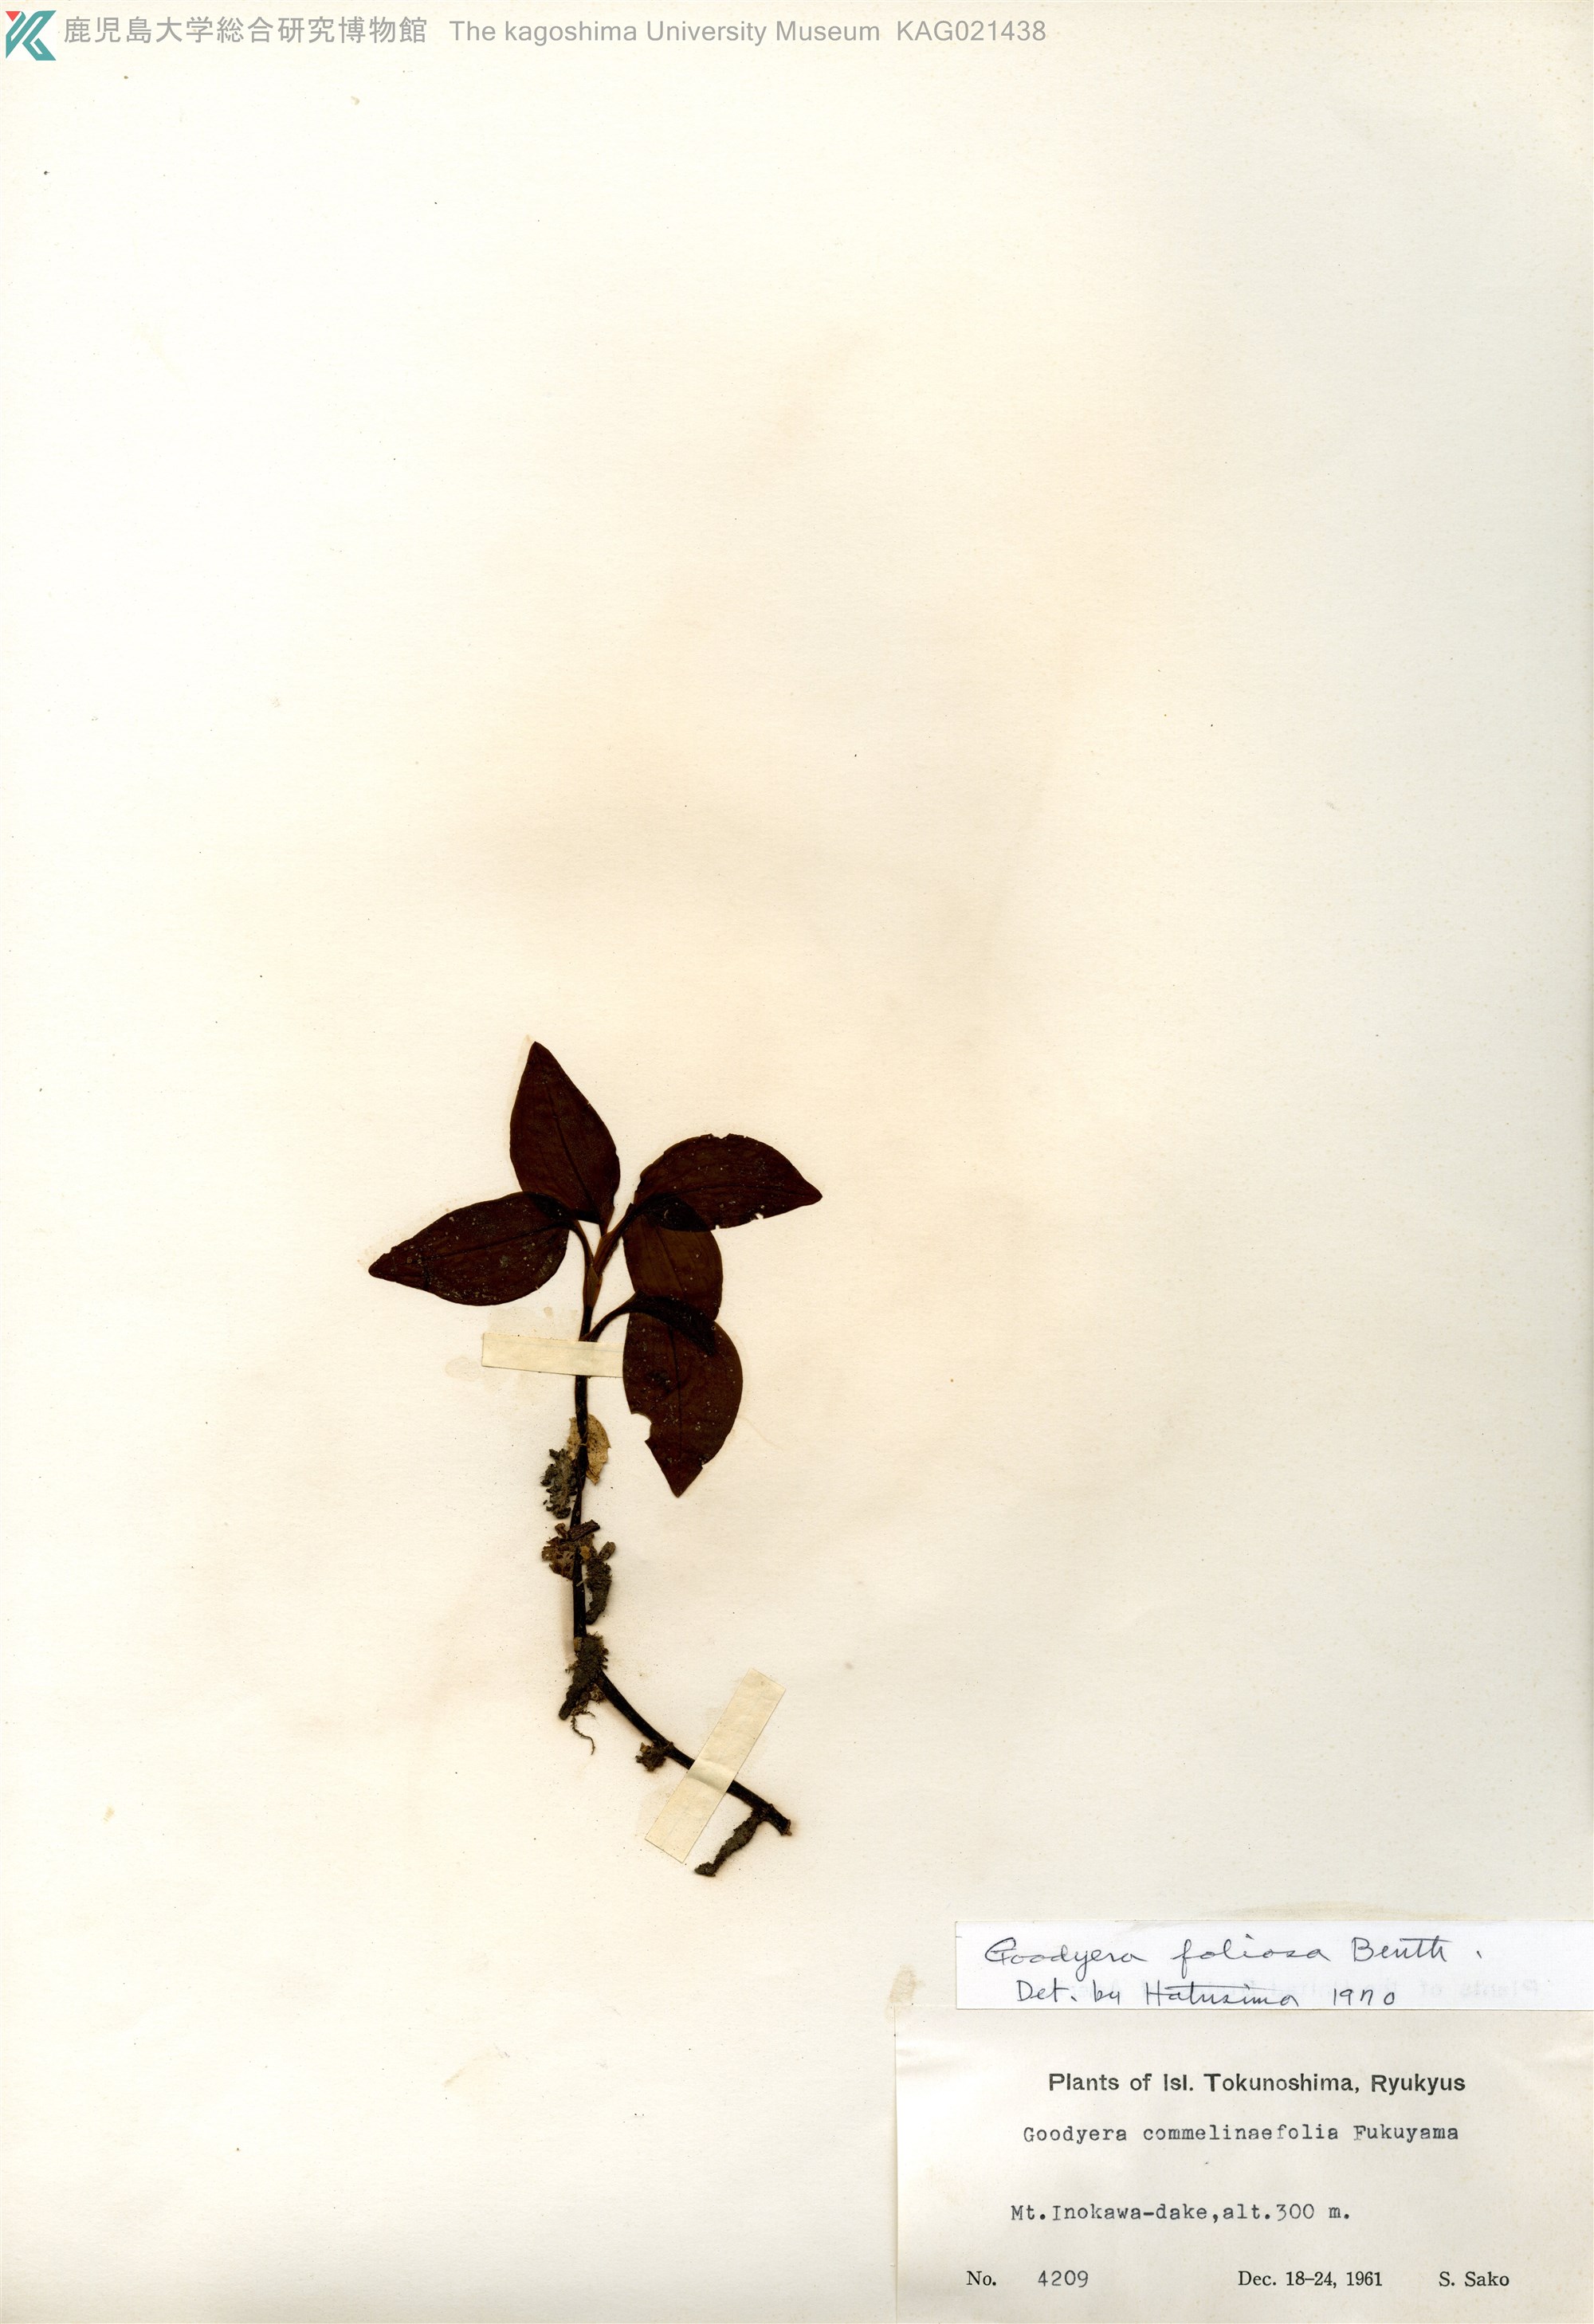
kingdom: Plantae
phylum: Tracheophyta
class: Liliopsida
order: Asparagales
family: Orchidaceae
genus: Goodyera
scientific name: Goodyera foliosa
